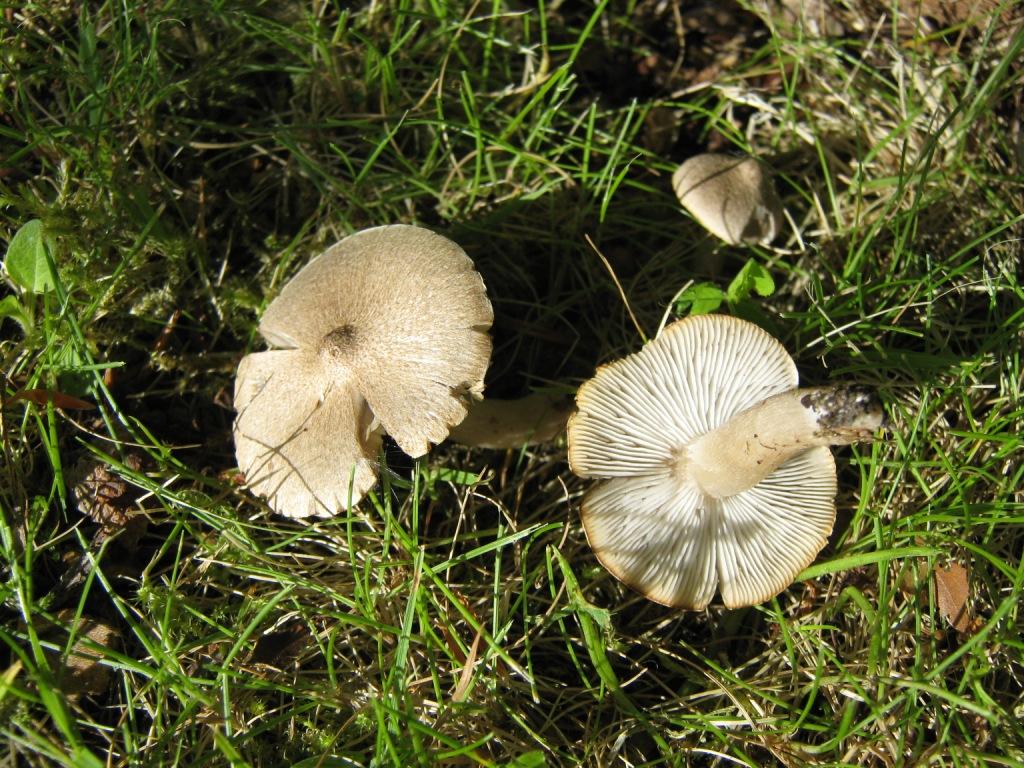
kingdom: Fungi
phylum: Basidiomycota
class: Agaricomycetes
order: Agaricales
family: Tricholomataceae
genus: Tricholoma
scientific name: Tricholoma argyraceum
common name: spids ridderhat
